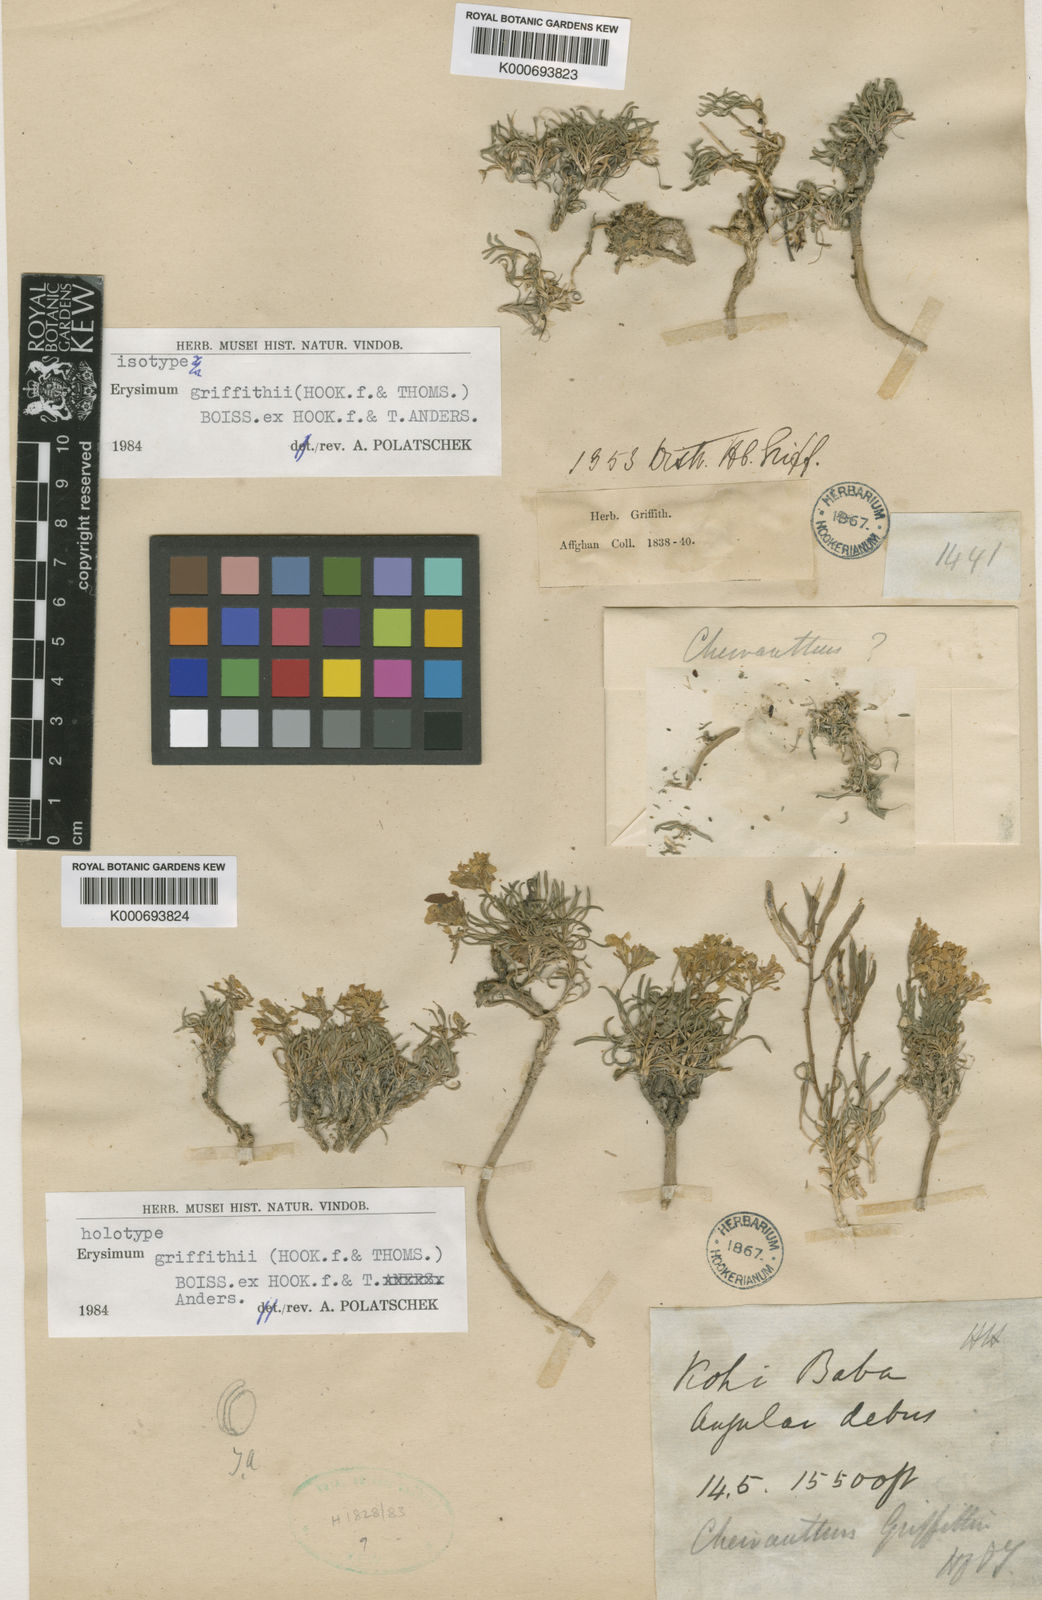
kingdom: Plantae
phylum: Tracheophyta
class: Magnoliopsida
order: Brassicales
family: Brassicaceae
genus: Erysimum
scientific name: Erysimum
